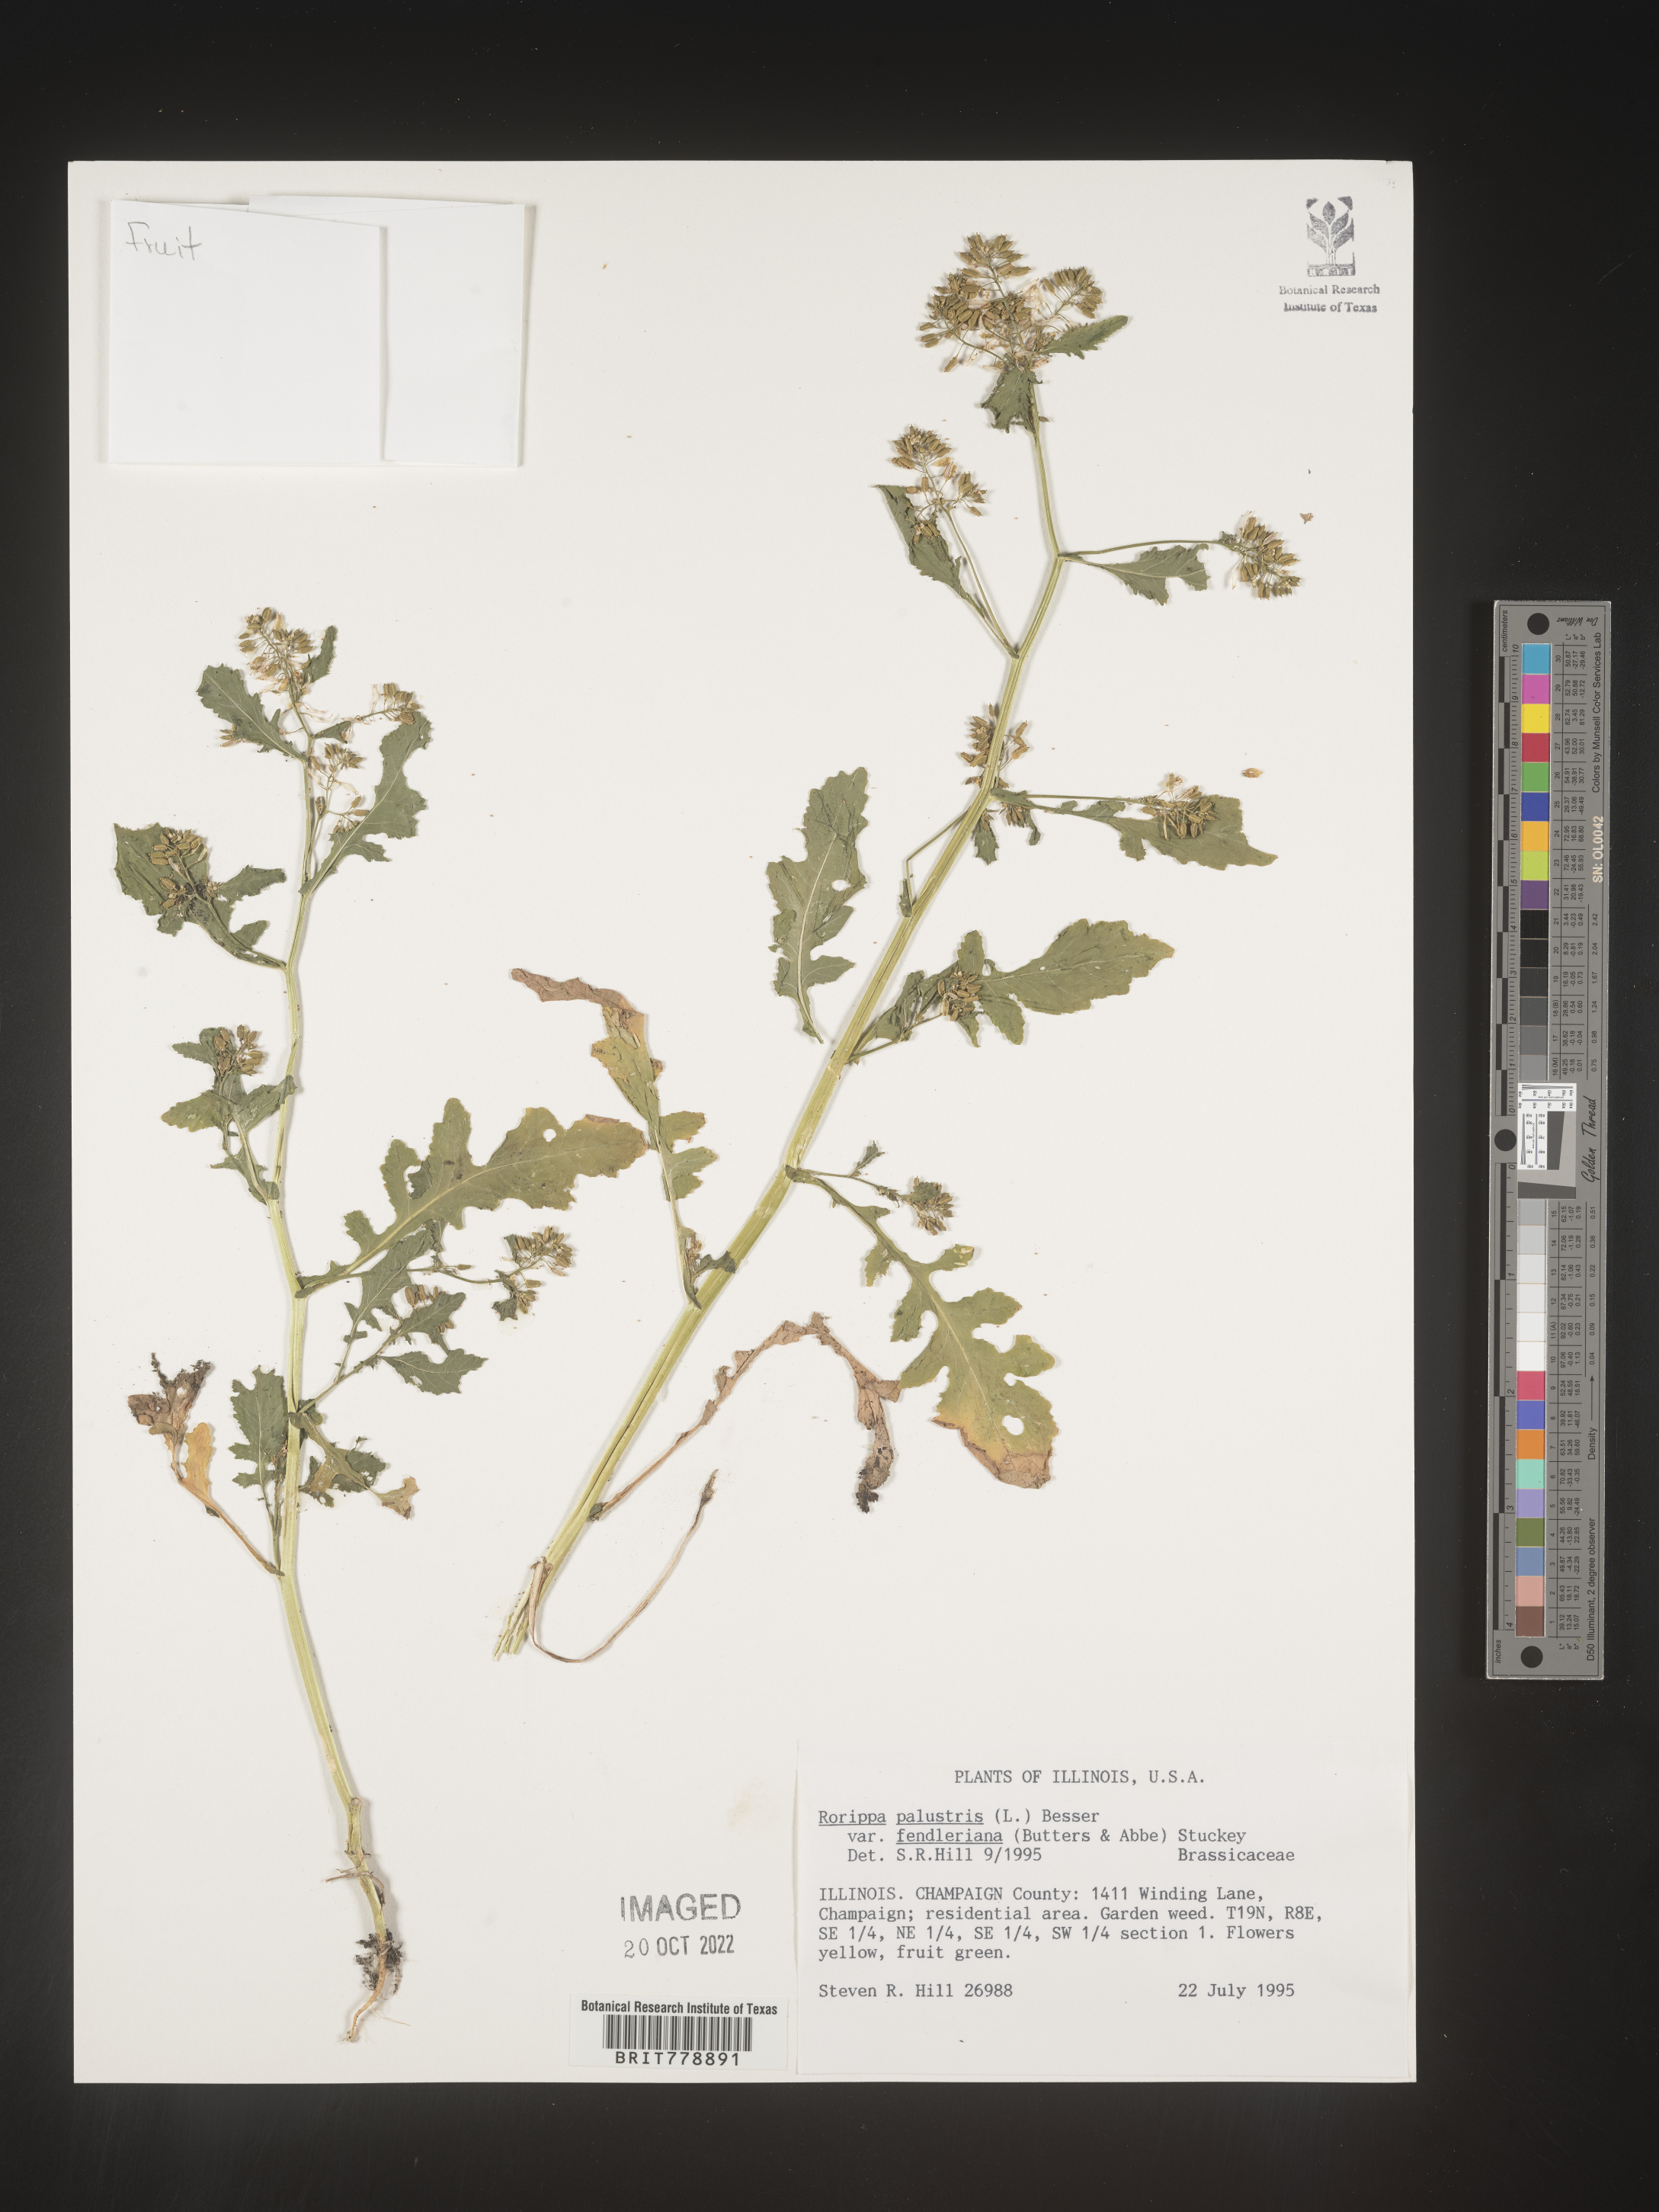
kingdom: Plantae
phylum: Tracheophyta
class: Magnoliopsida
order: Brassicales
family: Brassicaceae
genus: Rorippa
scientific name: Rorippa palustris
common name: Marsh yellow-cress
